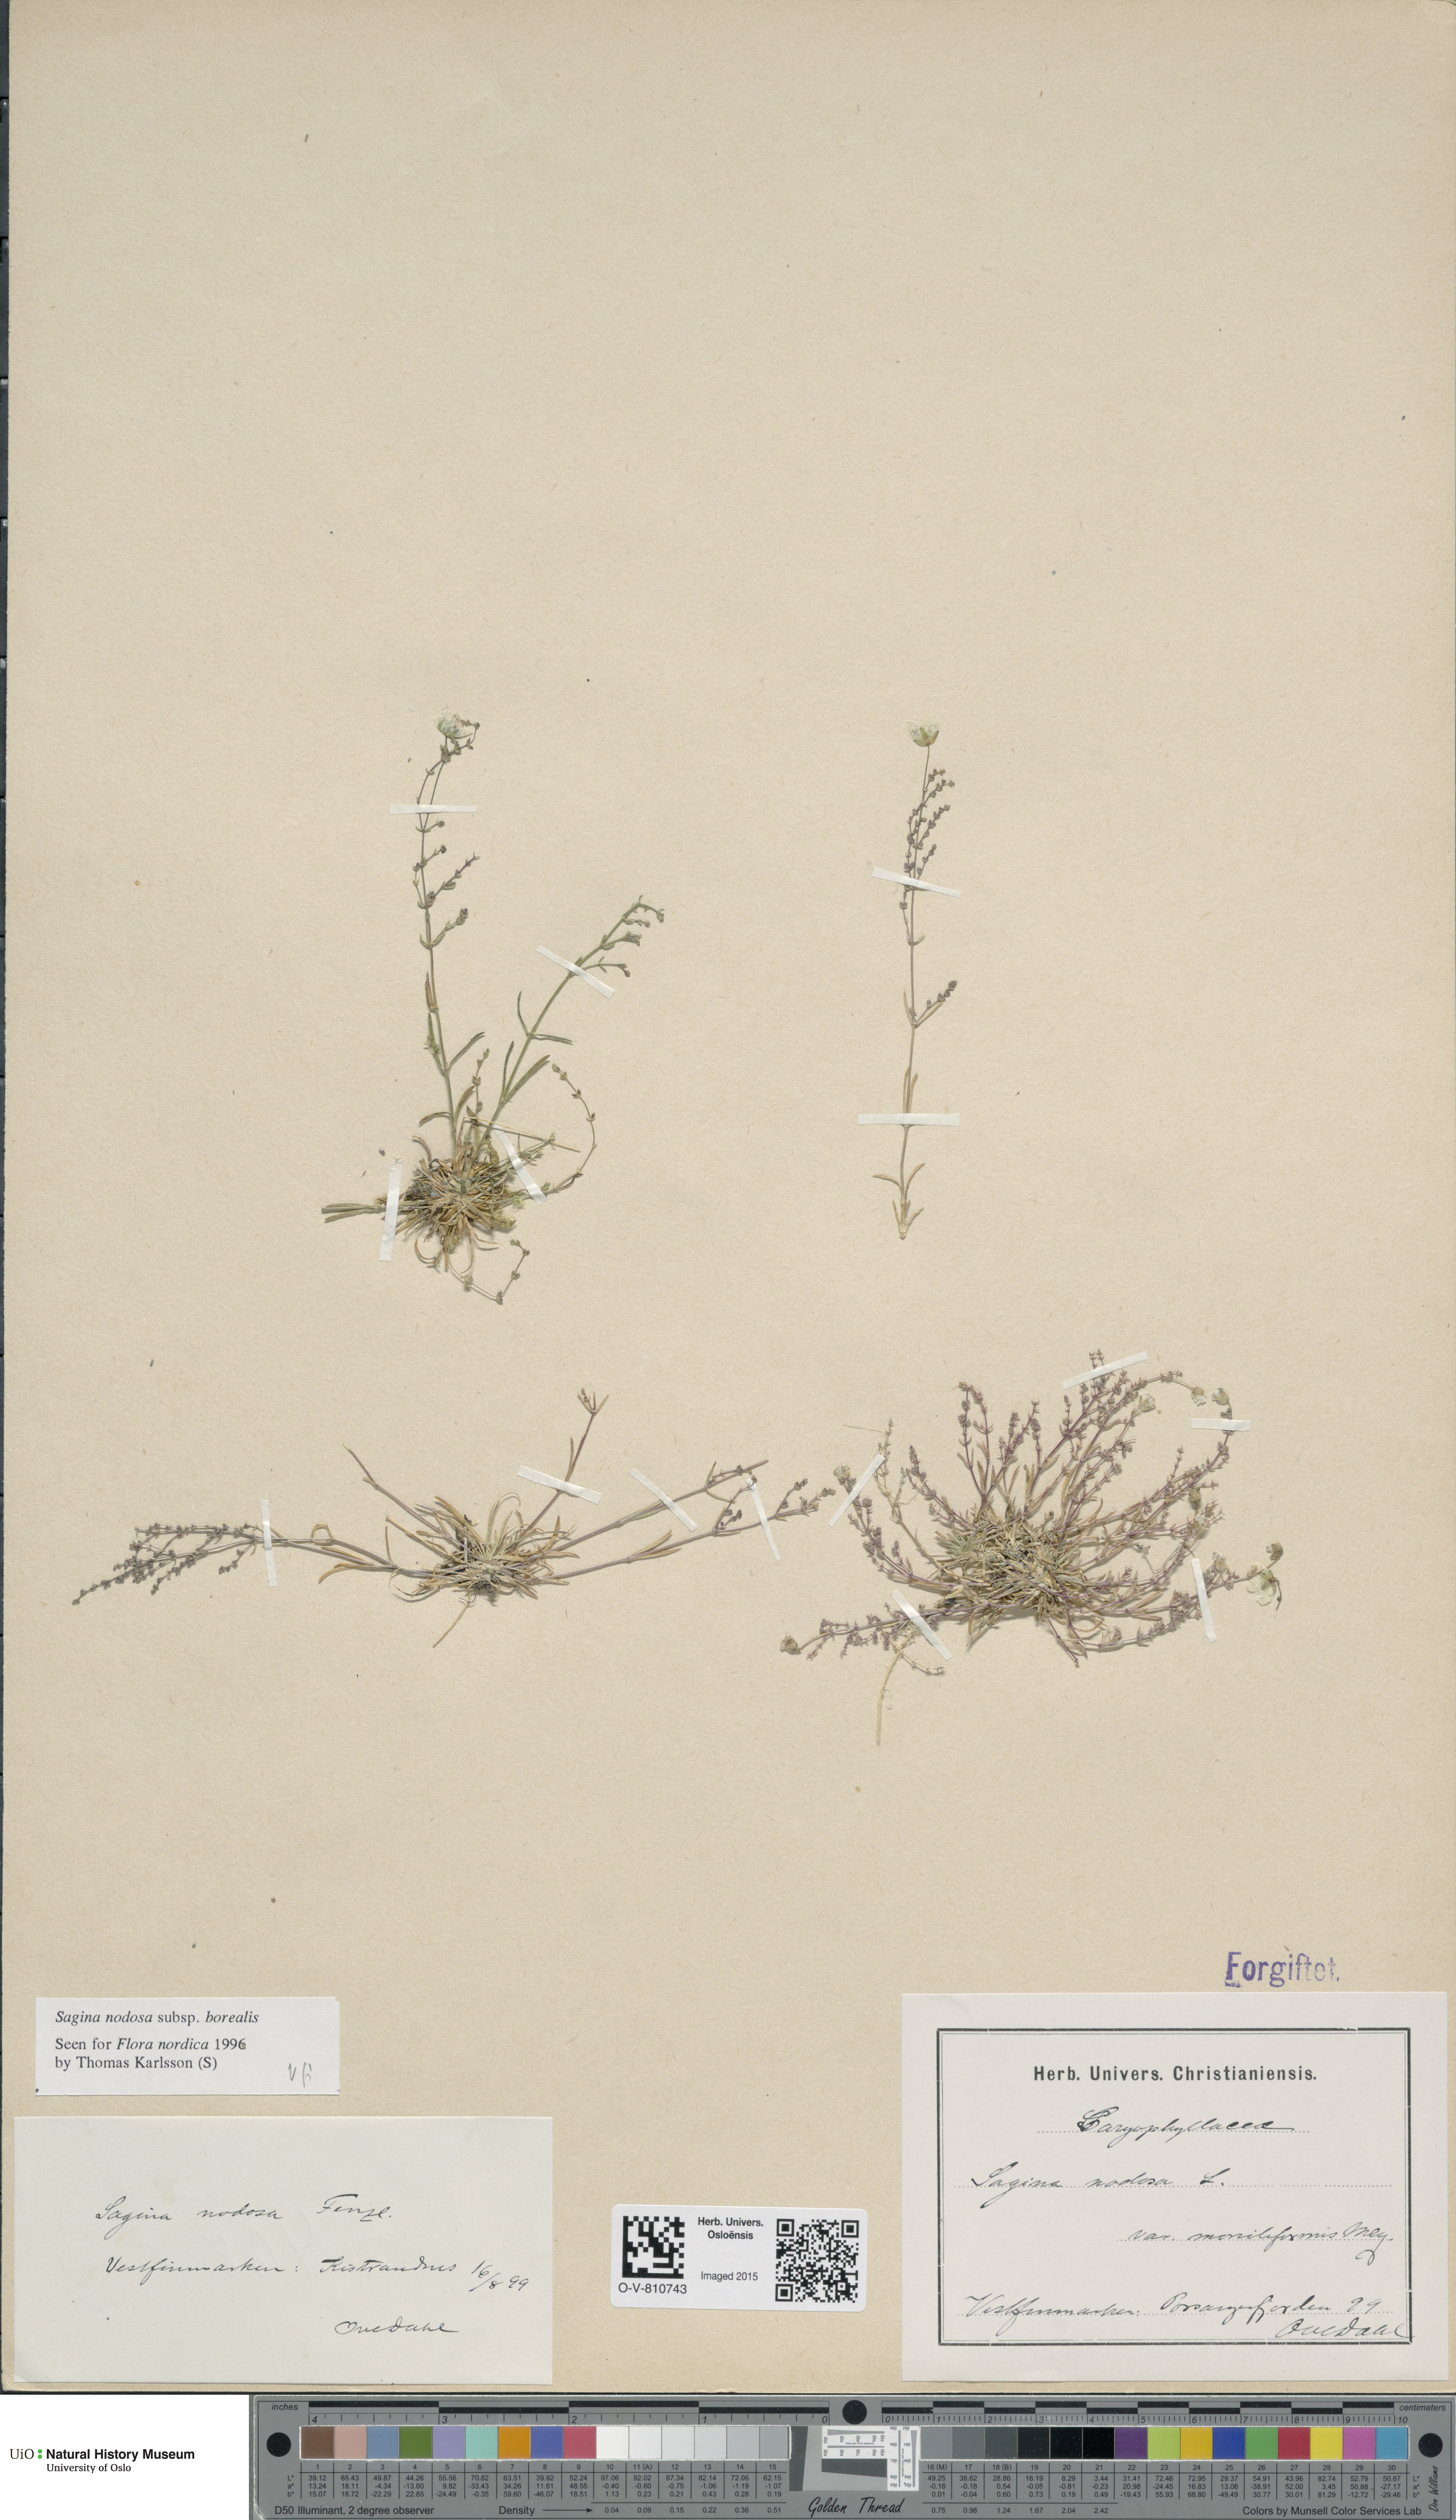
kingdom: Plantae
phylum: Tracheophyta
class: Magnoliopsida
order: Caryophyllales
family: Caryophyllaceae
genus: Sagina
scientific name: Sagina nodosa
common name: Knotted pearlwort
